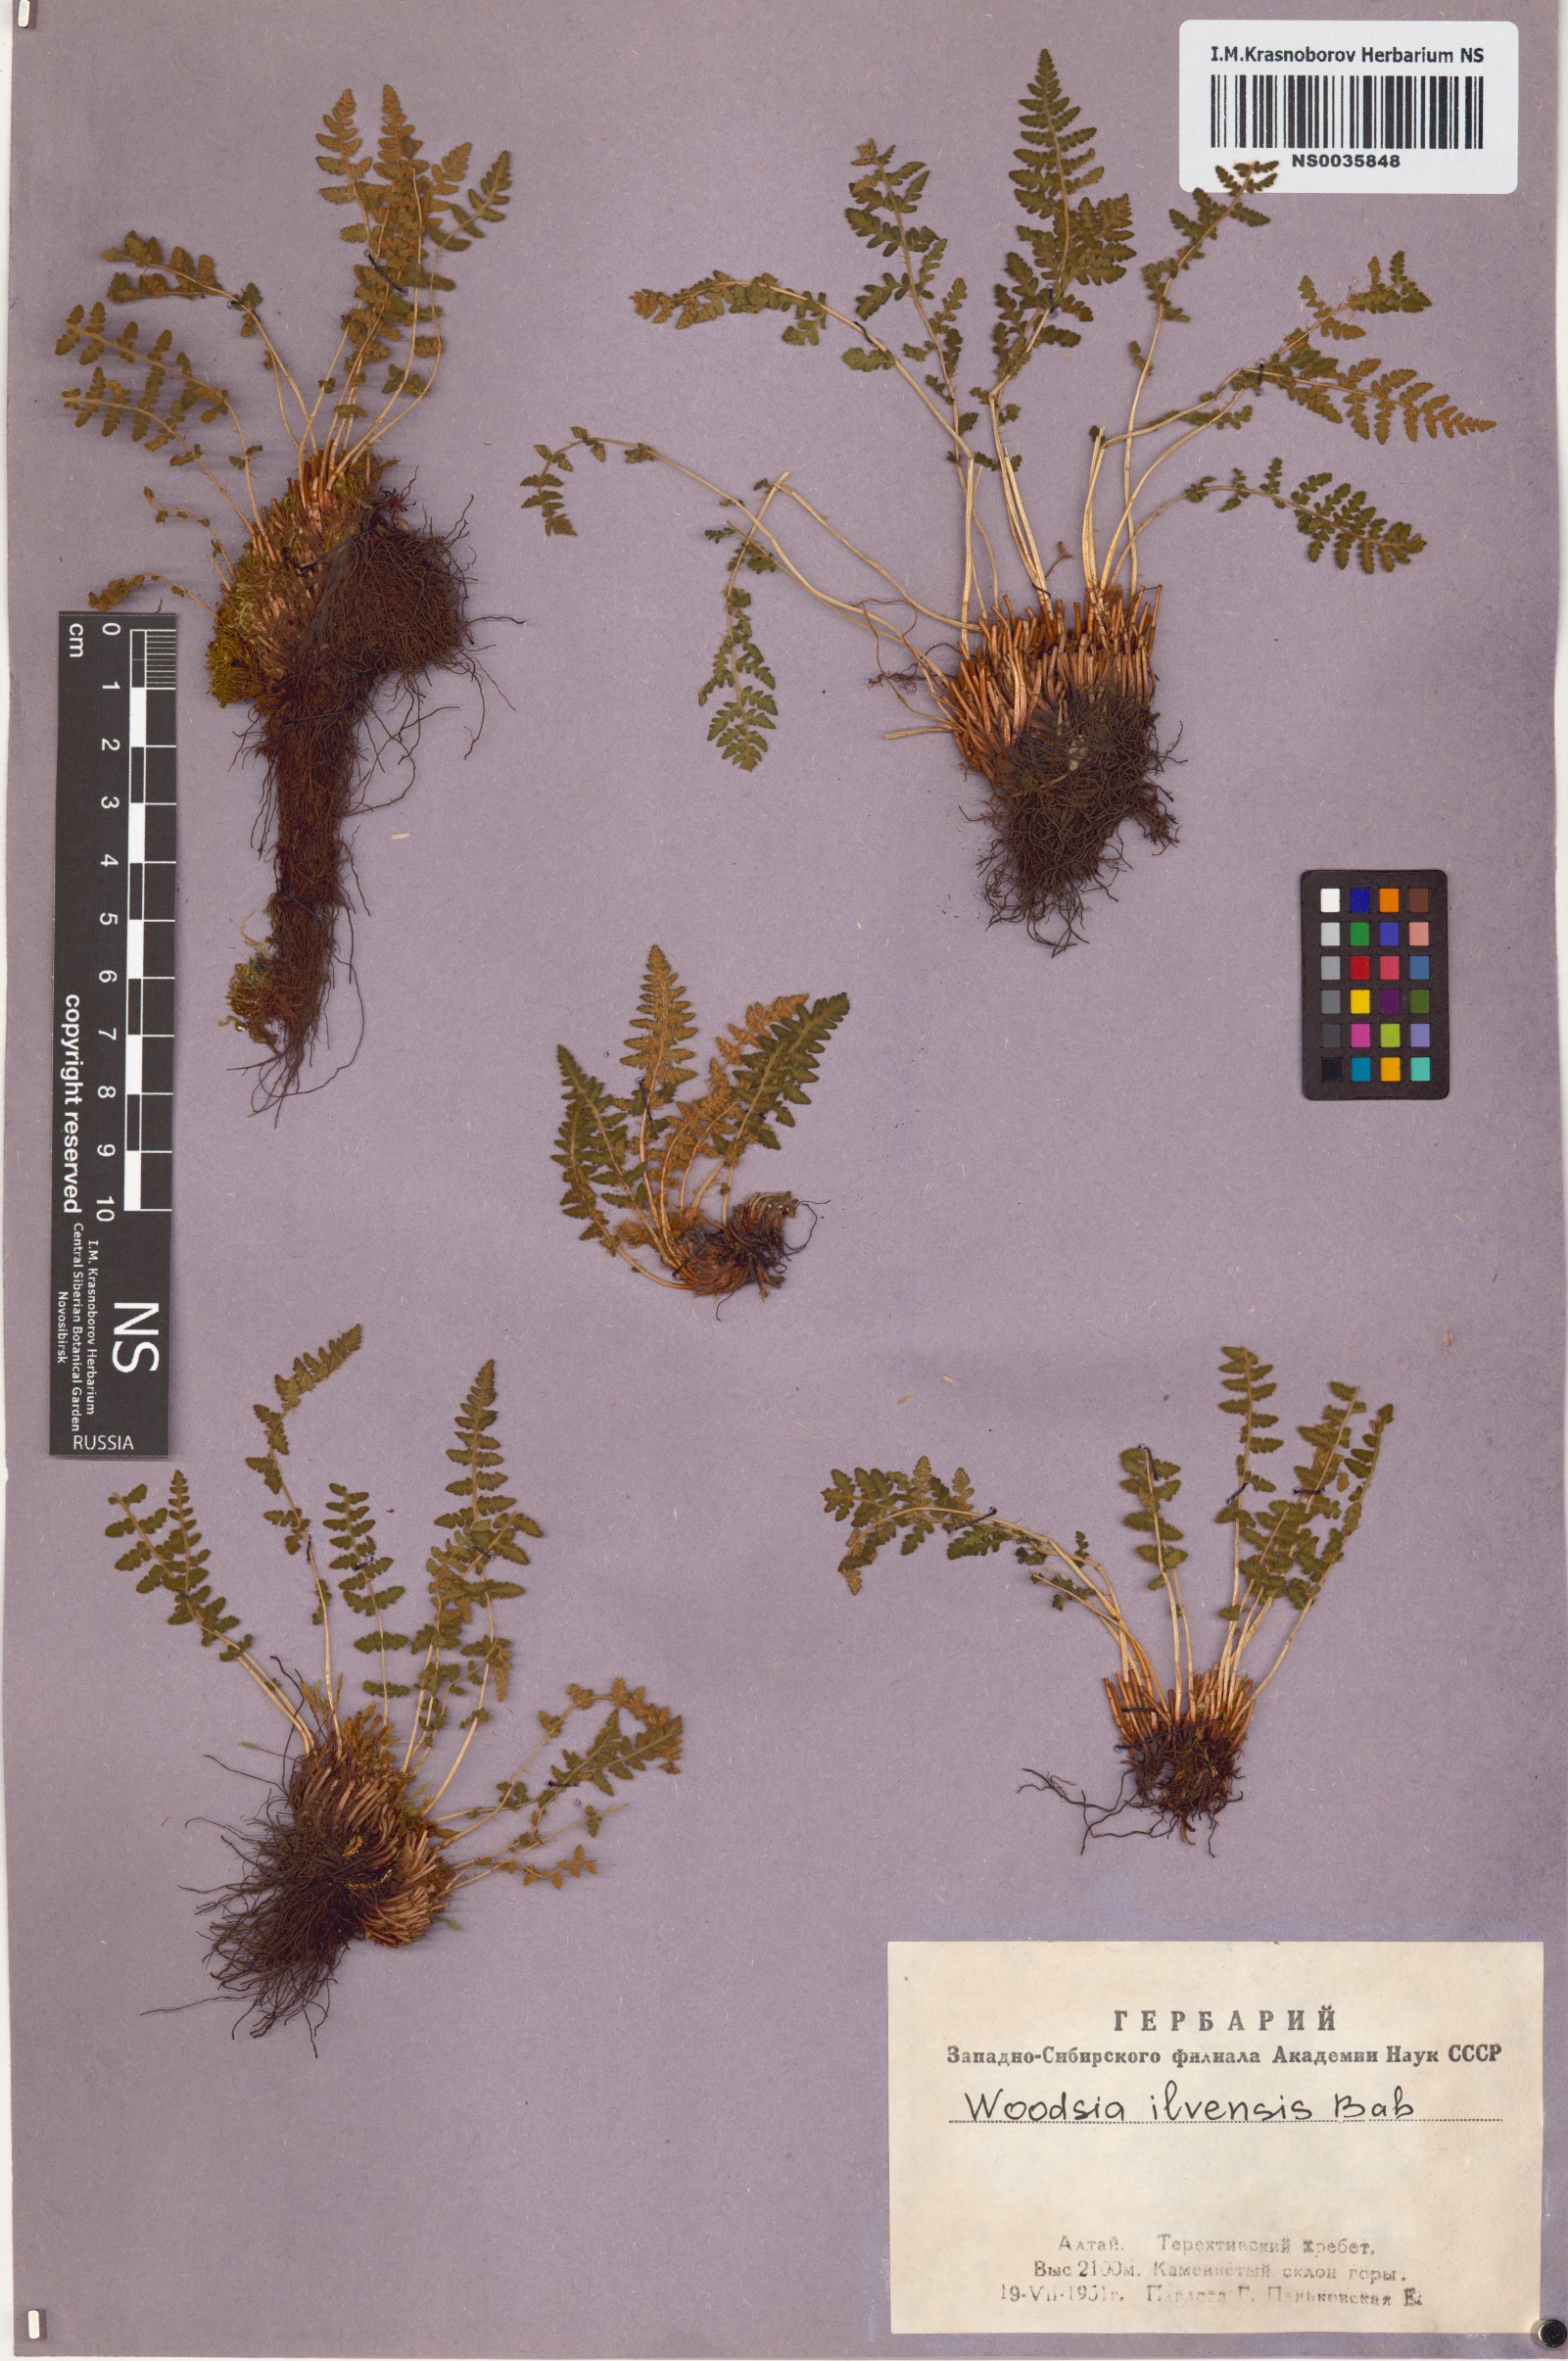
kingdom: Plantae
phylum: Tracheophyta
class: Polypodiopsida
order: Polypodiales
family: Woodsiaceae
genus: Woodsia
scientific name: Woodsia ilvensis
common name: Fragrant woodsia
